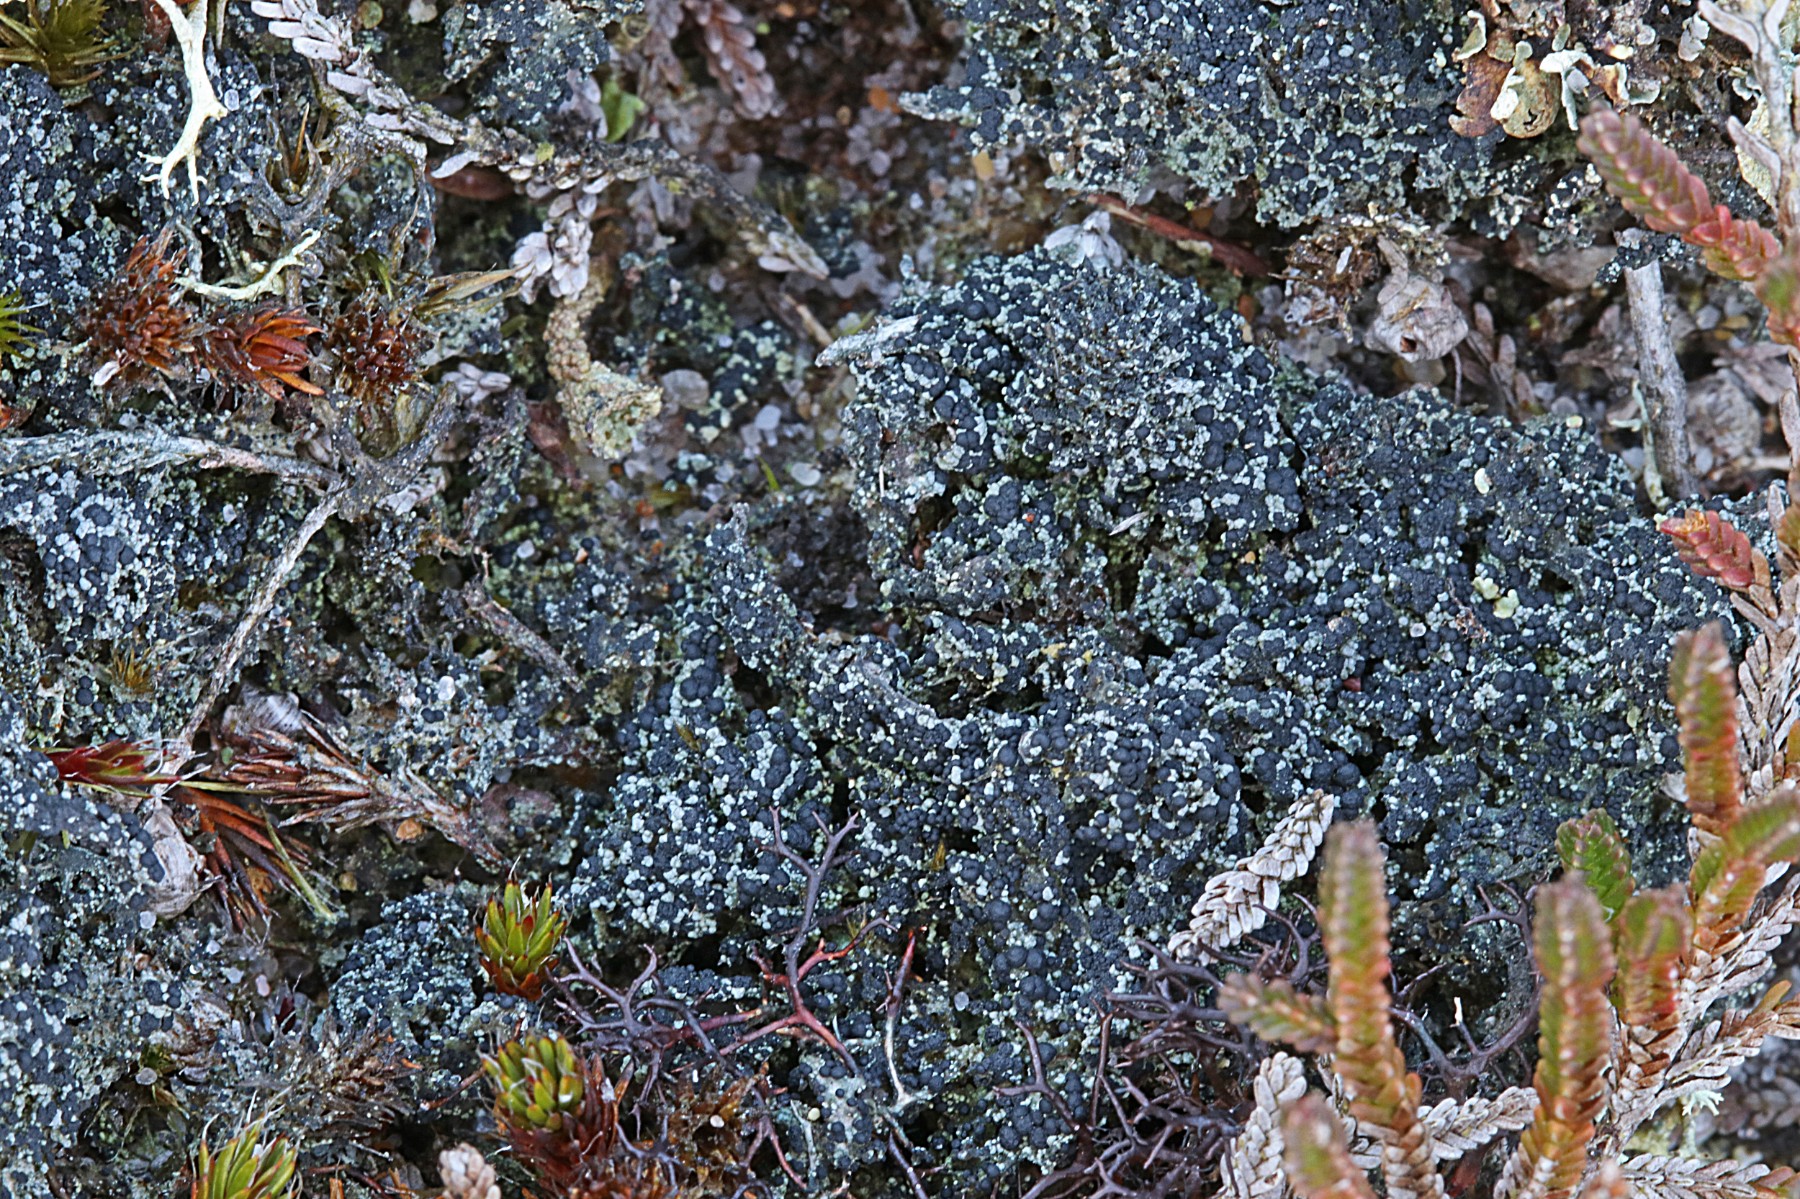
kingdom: Fungi
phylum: Ascomycota
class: Lecanoromycetes
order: Lecanorales
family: Byssolomataceae
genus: Micarea
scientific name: Micarea lignaria
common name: tørve-knaplav
